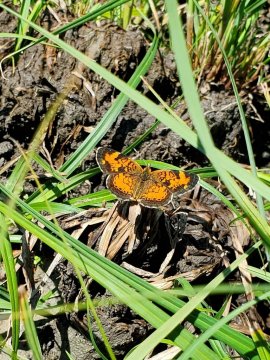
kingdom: Animalia
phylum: Arthropoda
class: Insecta
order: Lepidoptera
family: Nymphalidae
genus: Phyciodes
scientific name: Phyciodes tharos
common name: Northern Crescent
